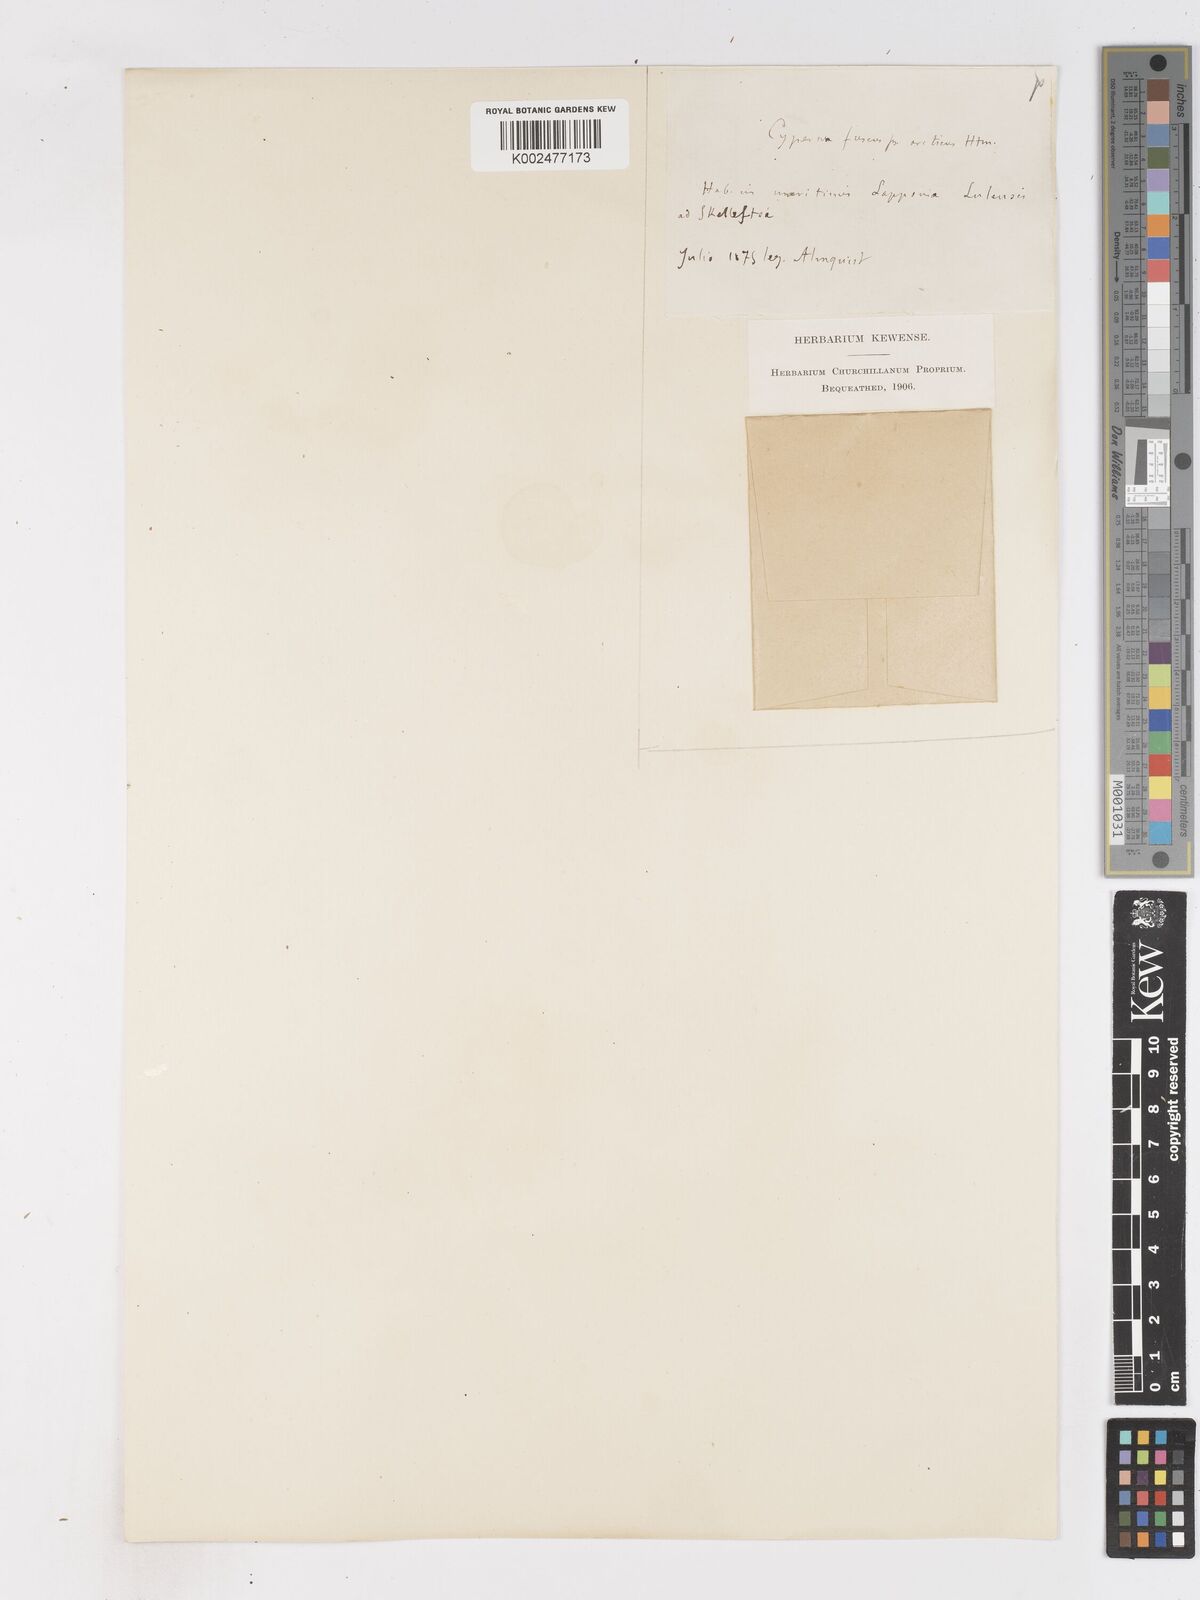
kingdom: Plantae
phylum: Tracheophyta
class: Liliopsida
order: Poales
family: Cyperaceae
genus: Cyperus
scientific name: Cyperus fuscus
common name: Brown galingale
